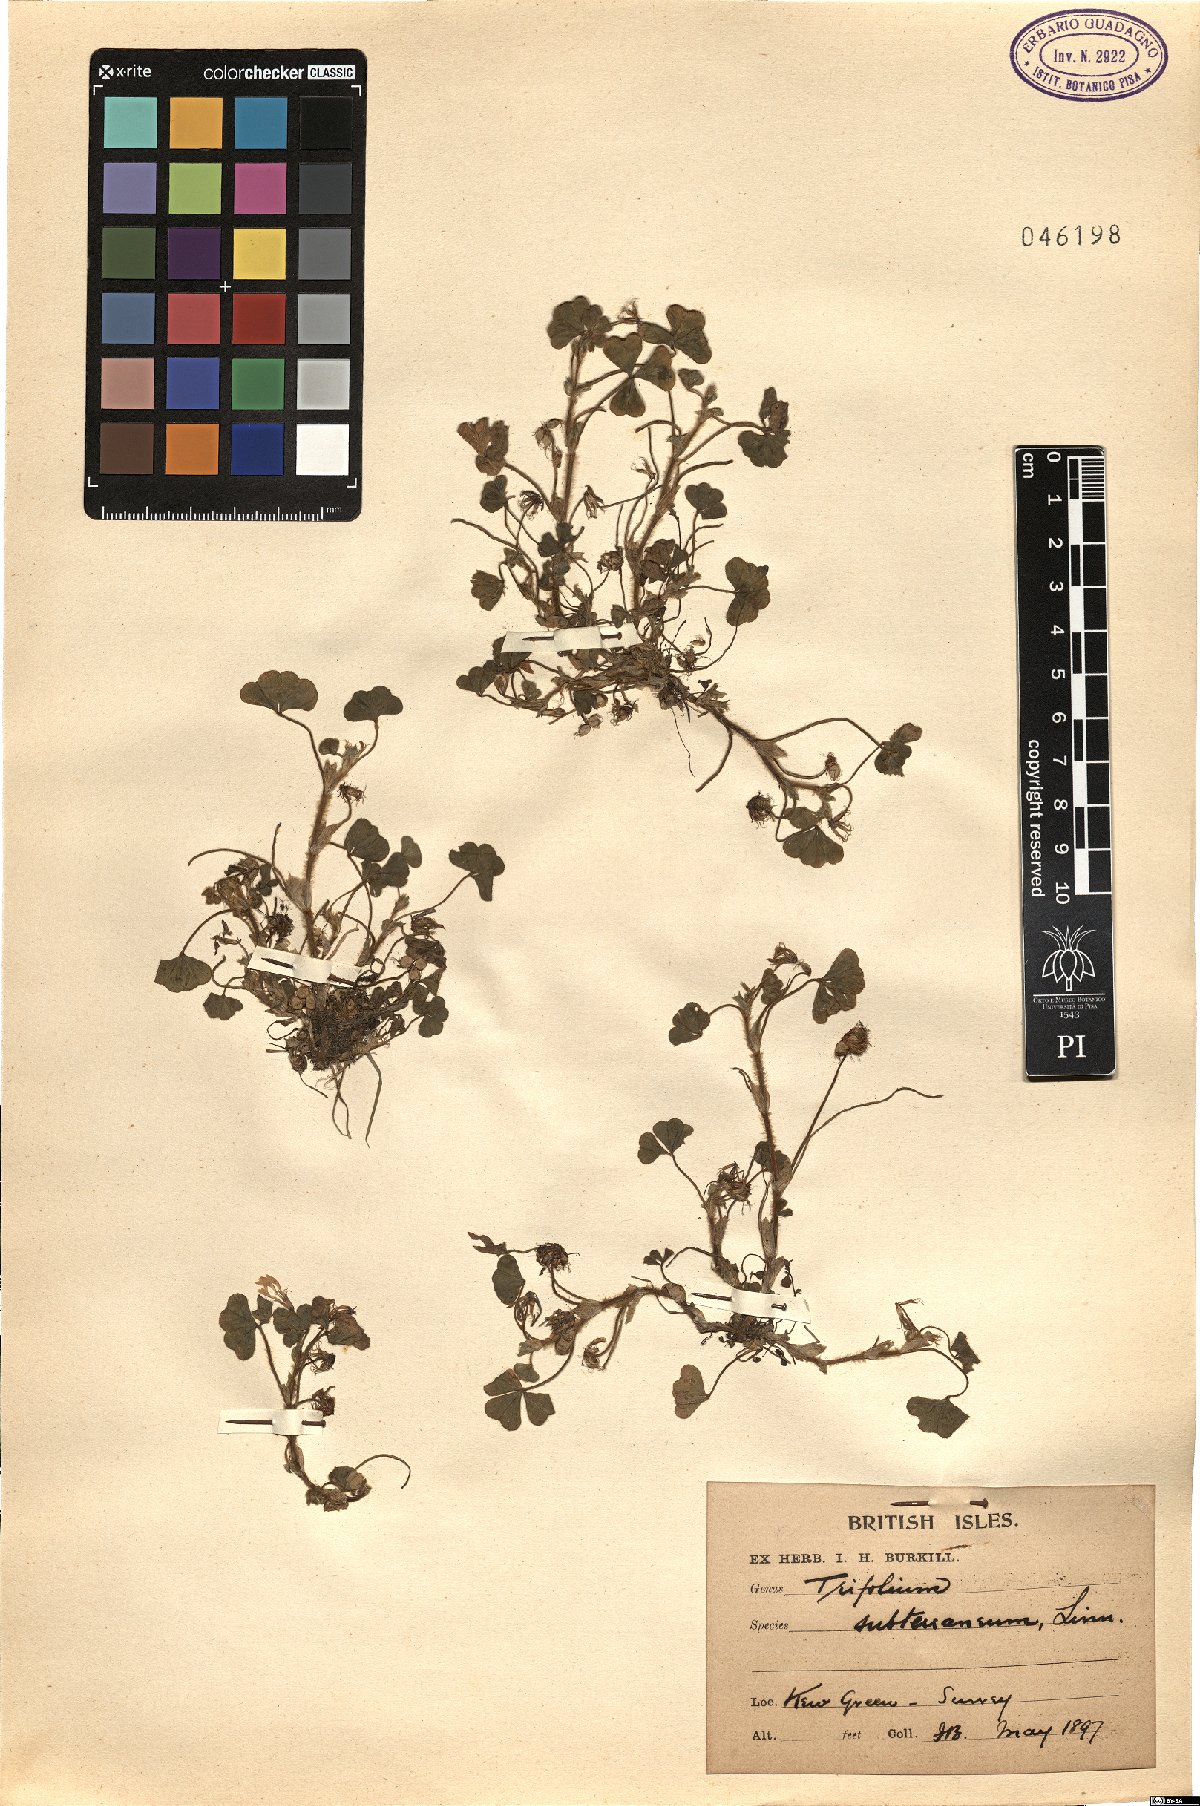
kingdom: Plantae
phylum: Tracheophyta
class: Magnoliopsida
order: Fabales
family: Fabaceae
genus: Trifolium
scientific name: Trifolium subterraneum
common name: Subterranean clover
